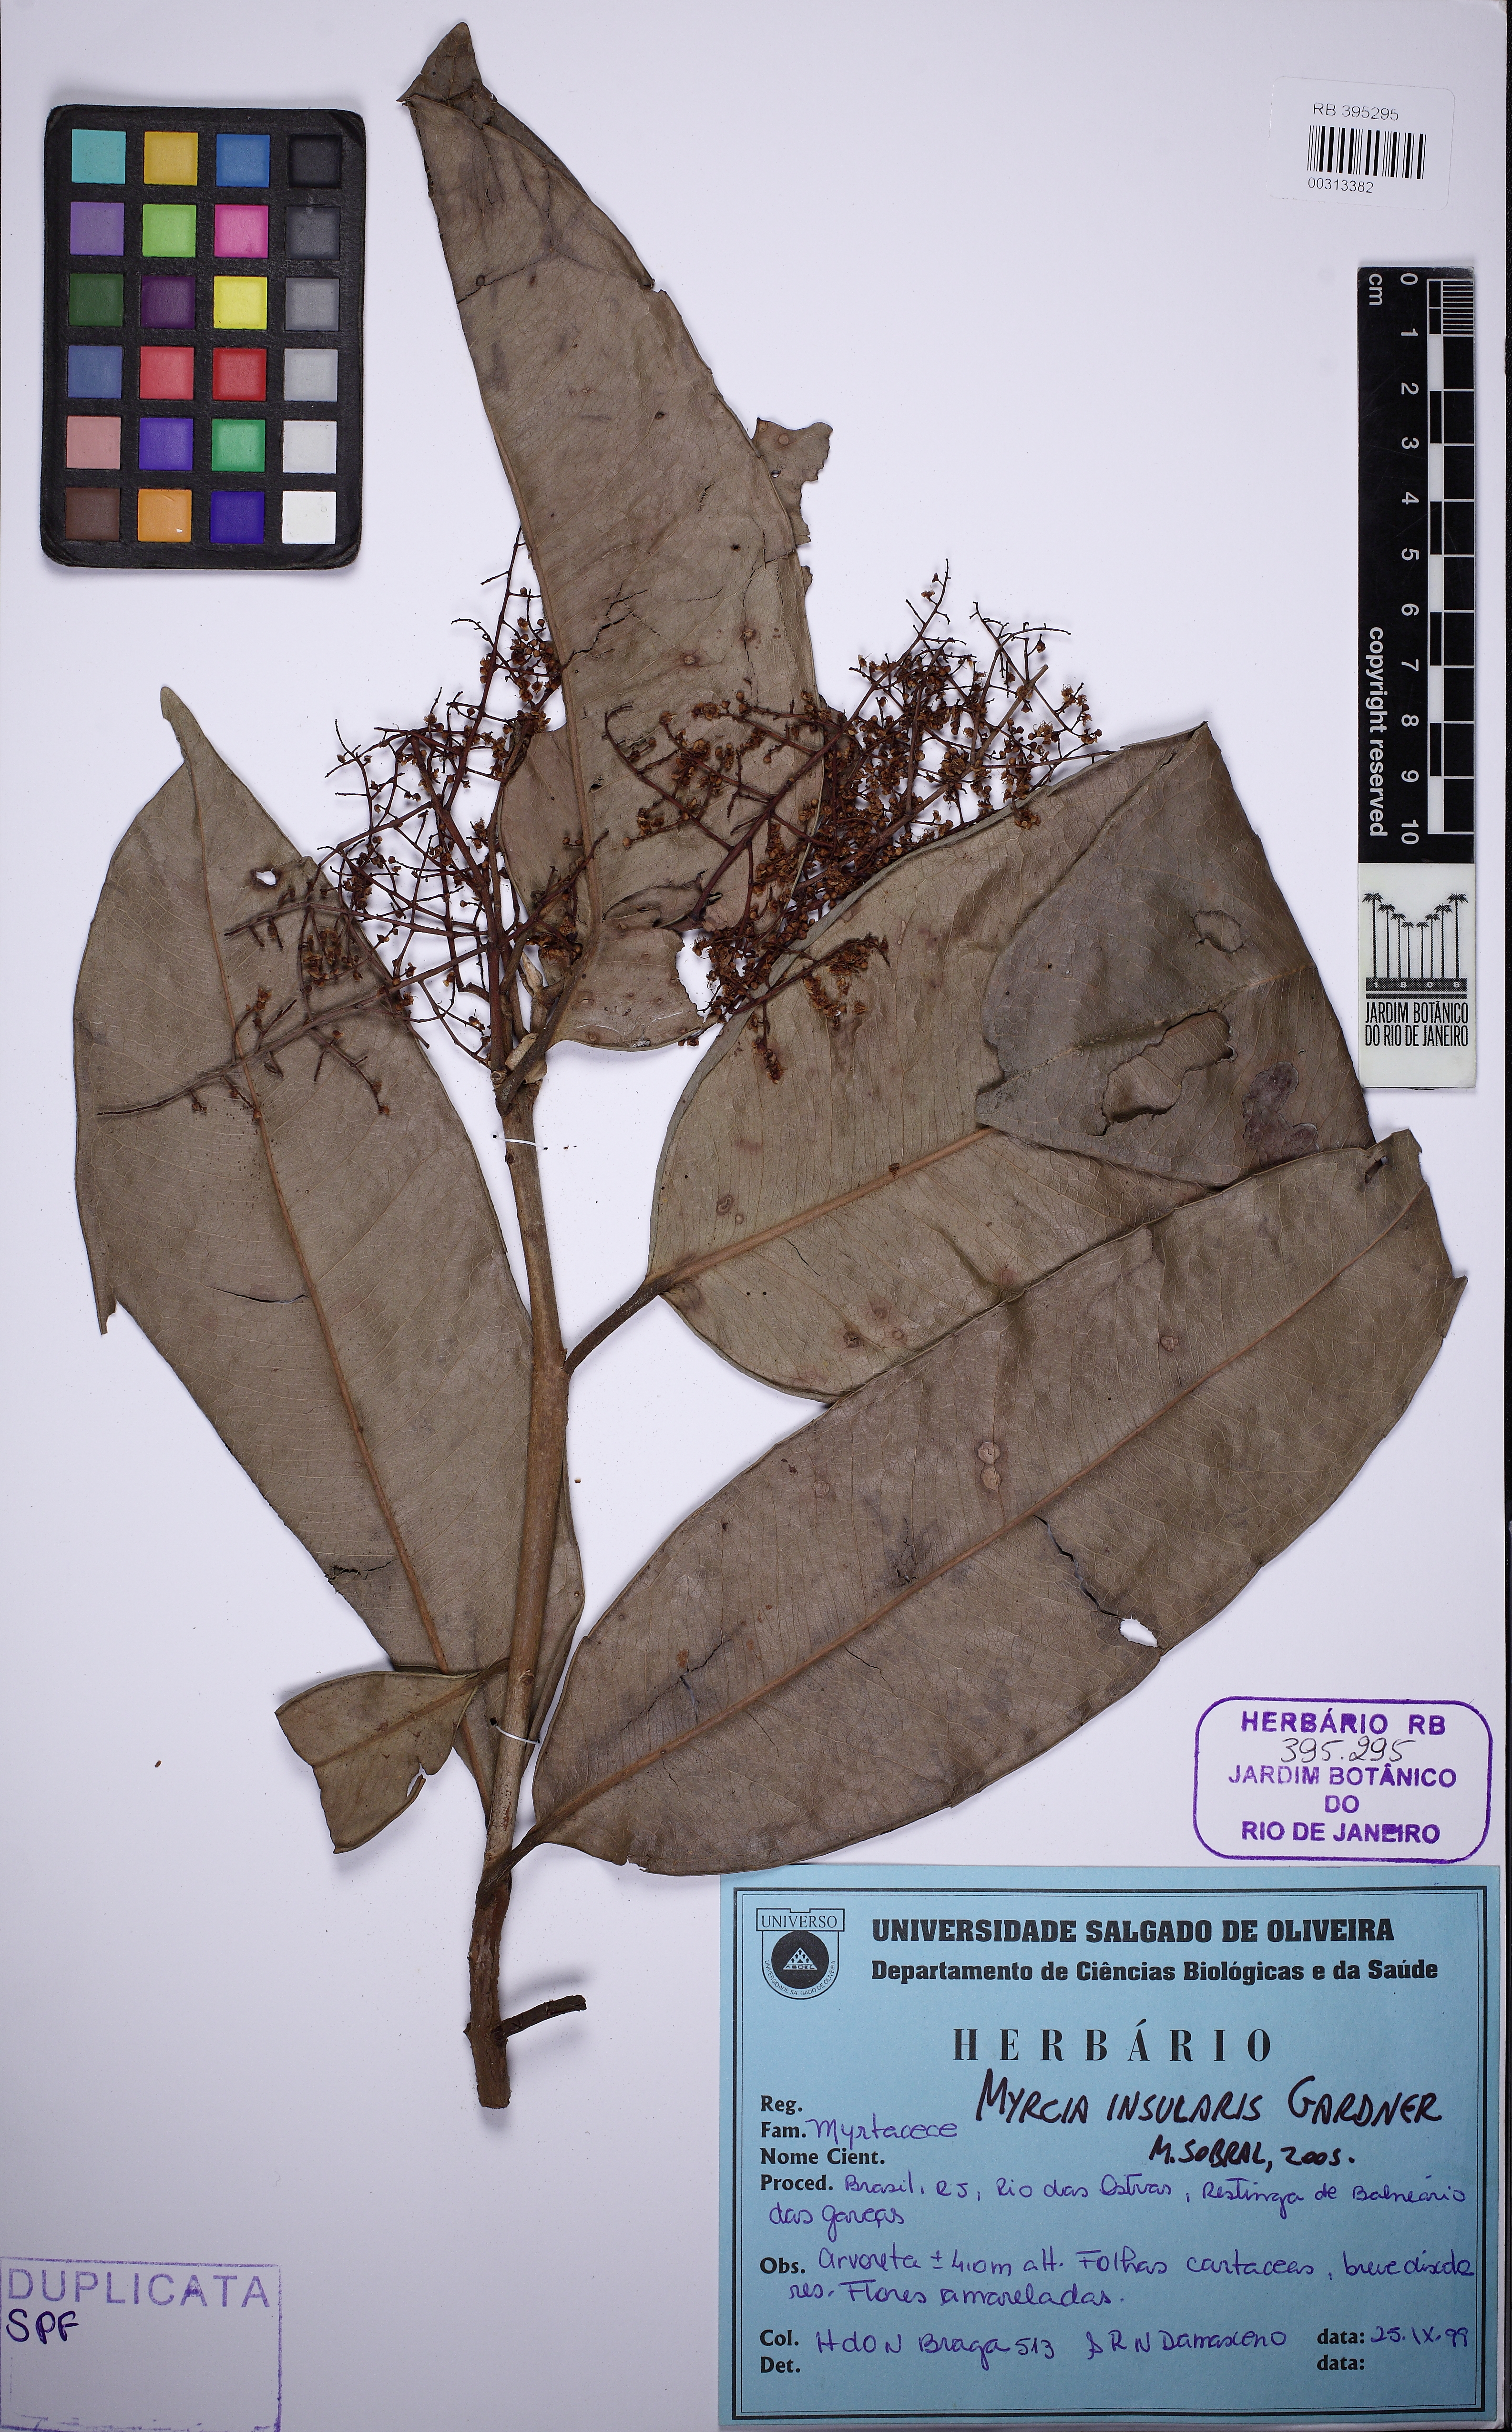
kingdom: Plantae
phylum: Tracheophyta
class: Magnoliopsida
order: Myrtales
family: Myrtaceae
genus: Myrcia
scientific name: Myrcia insularis
